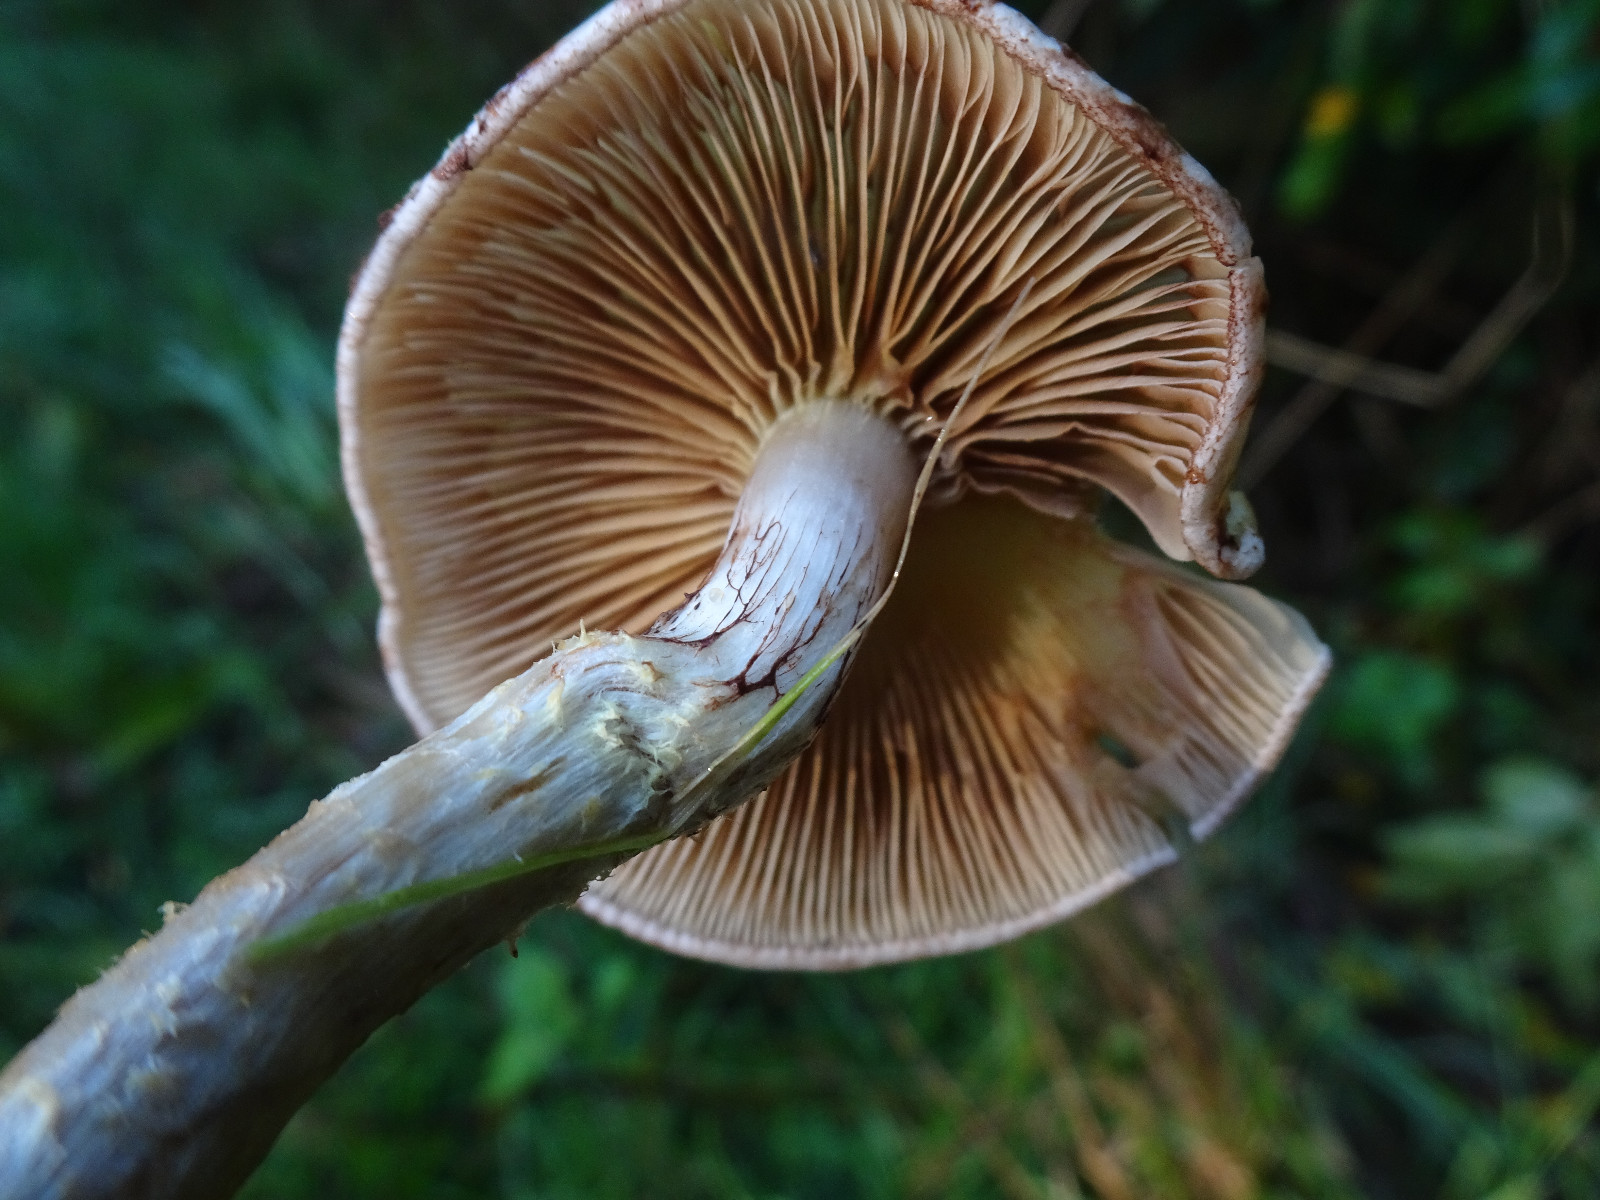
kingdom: Fungi
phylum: Basidiomycota
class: Agaricomycetes
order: Agaricales
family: Strophariaceae
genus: Pholiota
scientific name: Pholiota
